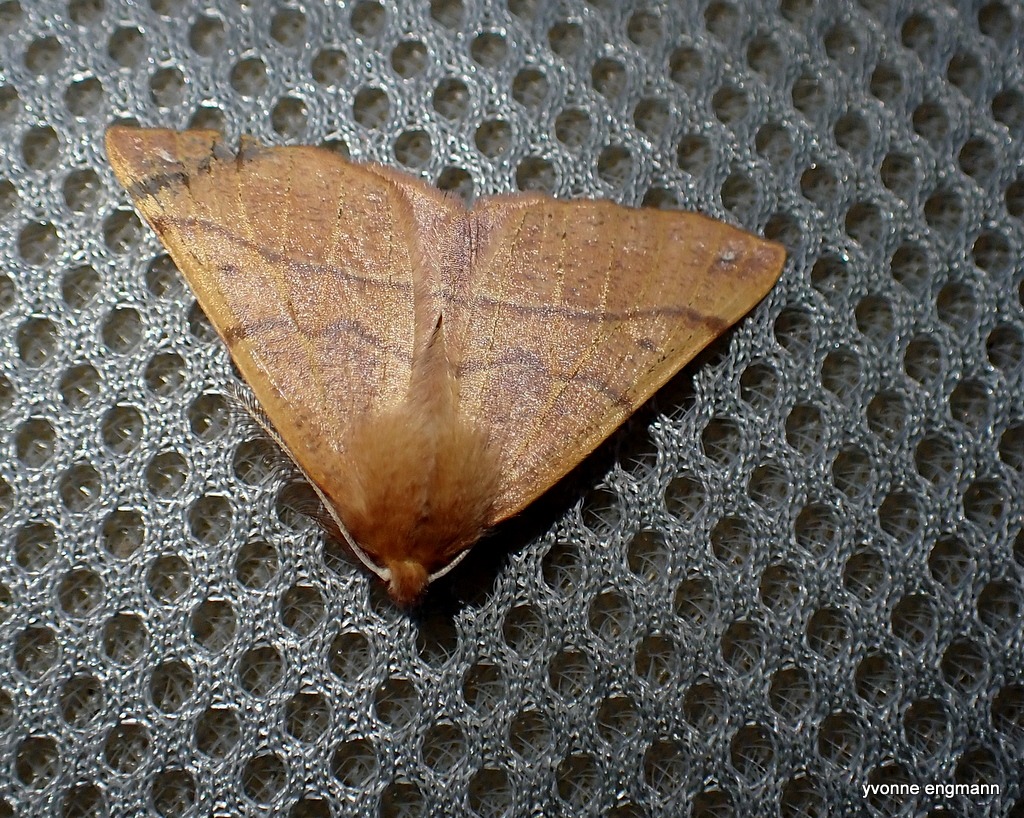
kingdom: Animalia
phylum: Arthropoda
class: Insecta
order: Lepidoptera
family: Geometridae
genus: Colotois
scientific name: Colotois pennaria
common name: Løvfaldsmåler
